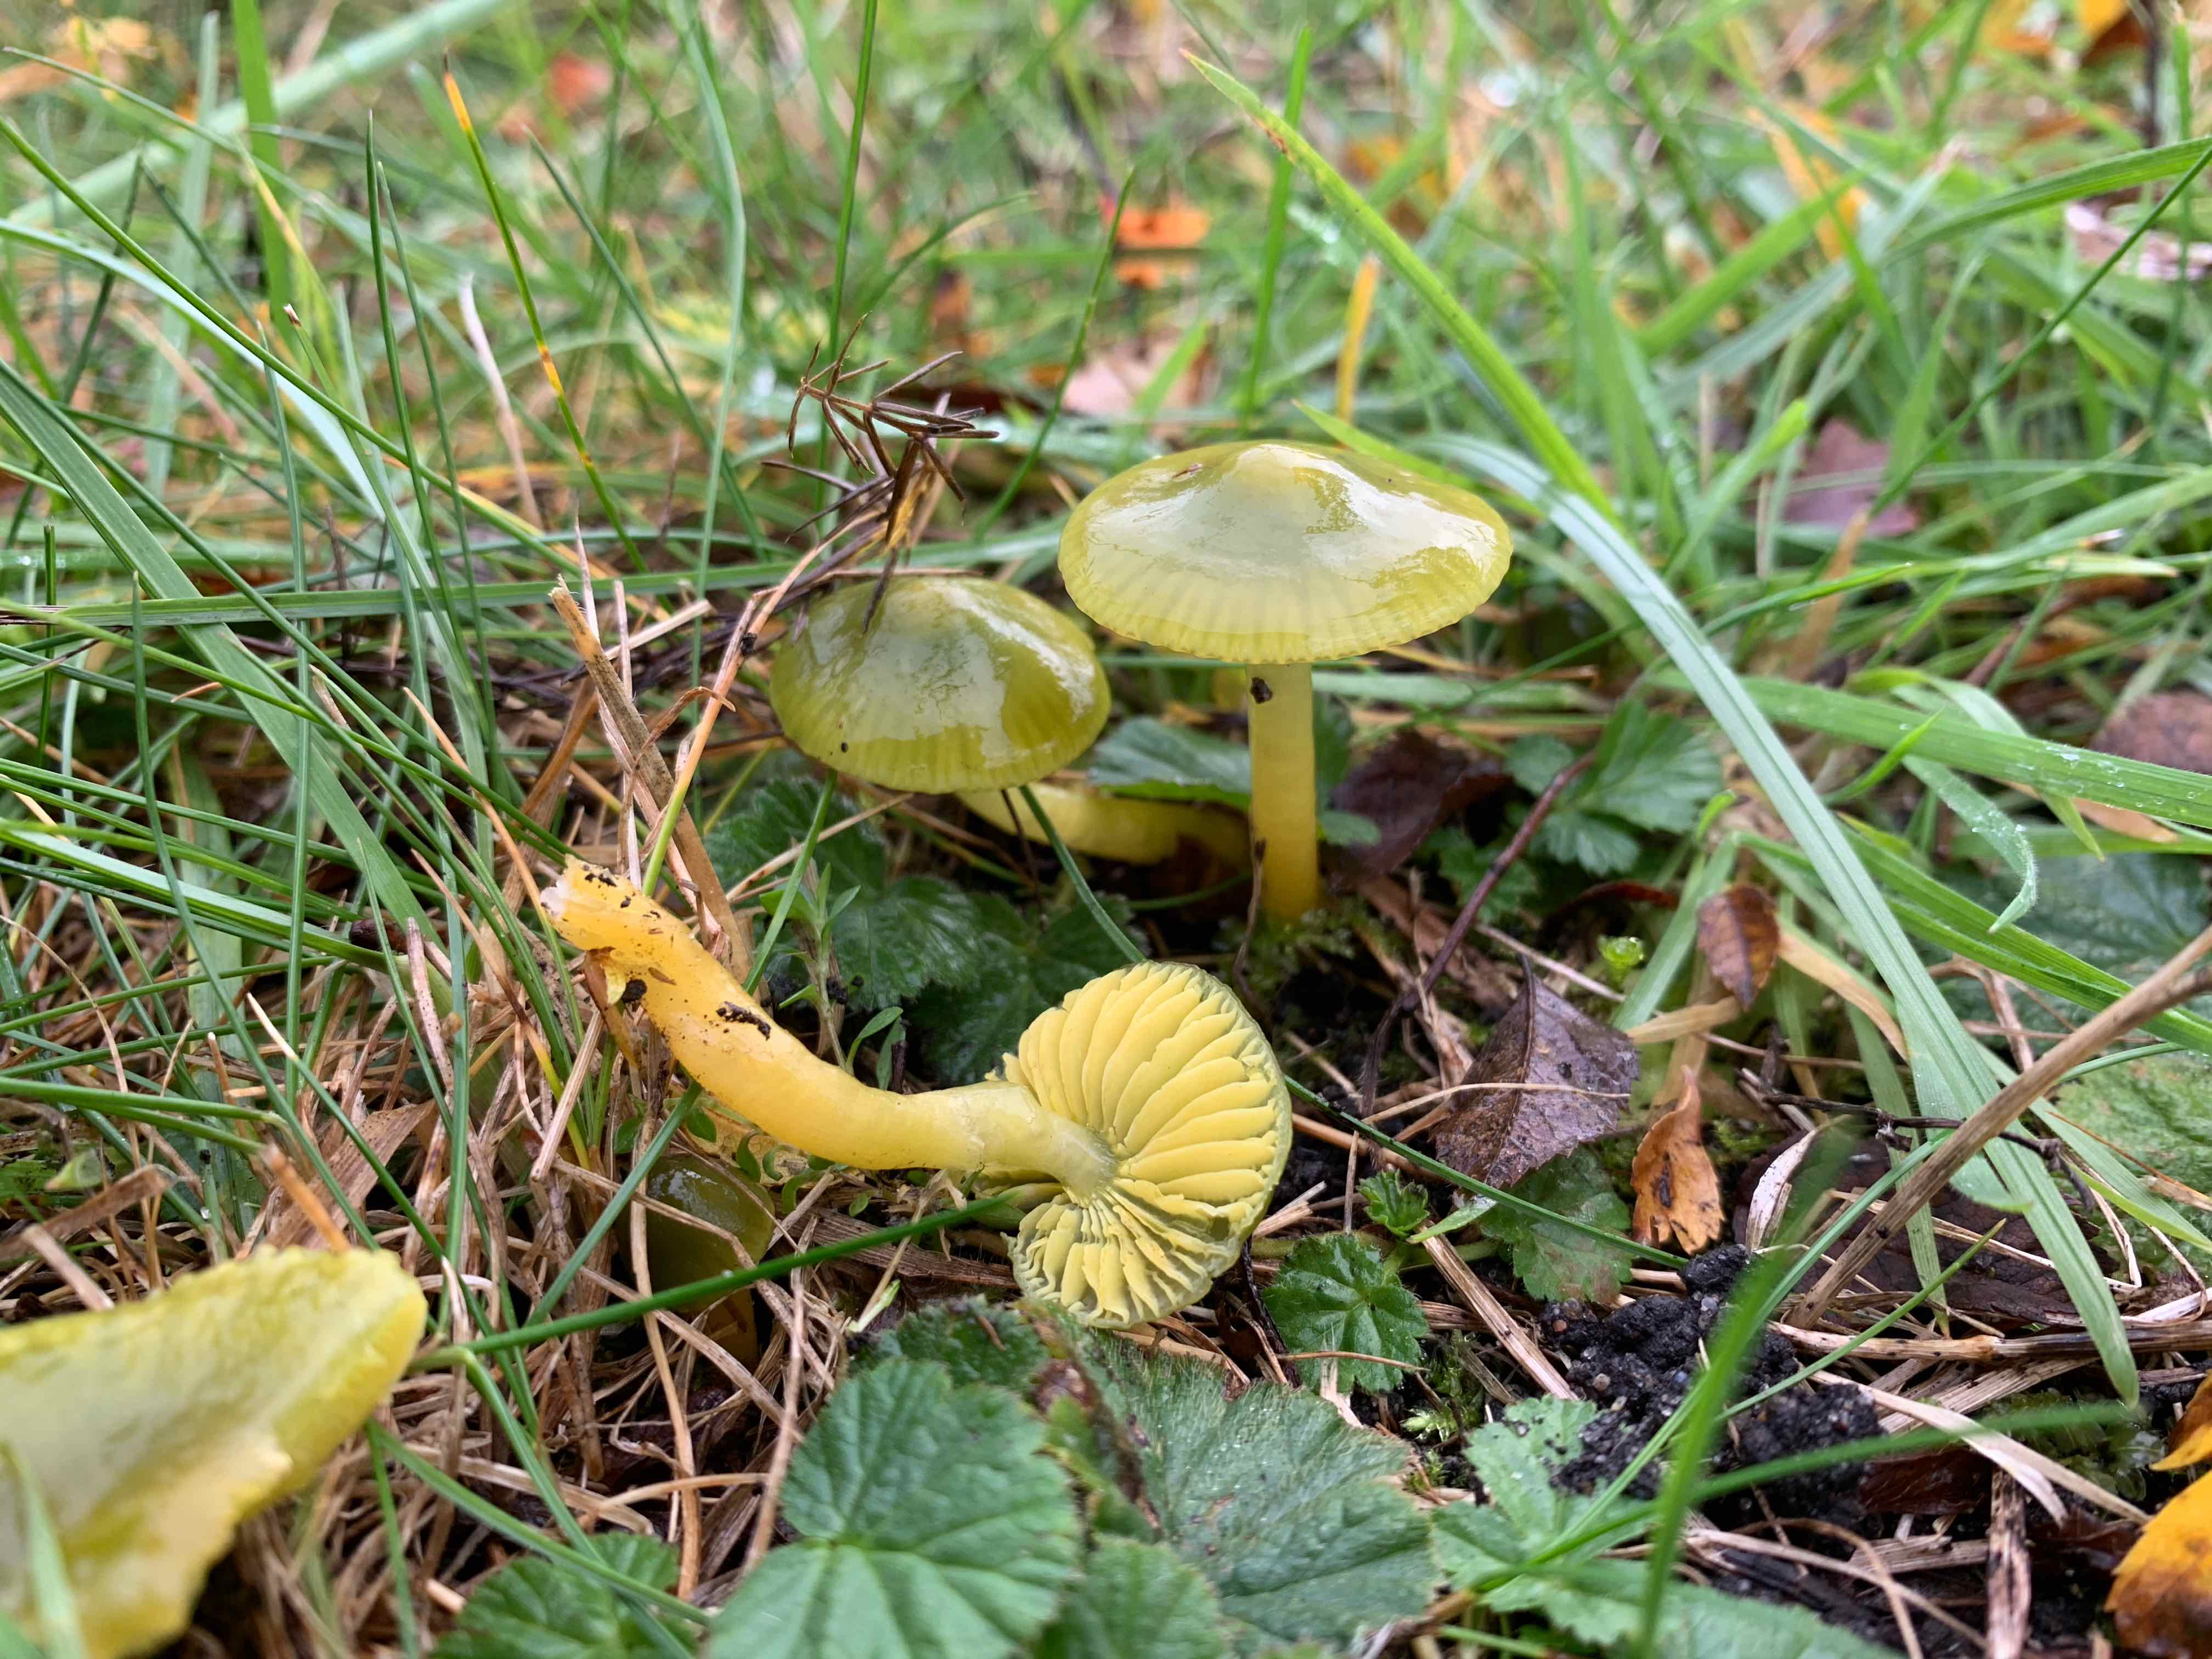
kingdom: Fungi
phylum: Basidiomycota
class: Agaricomycetes
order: Agaricales
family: Hygrophoraceae
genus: Gliophorus
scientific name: Gliophorus psittacinus
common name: papegøje-vokshat
